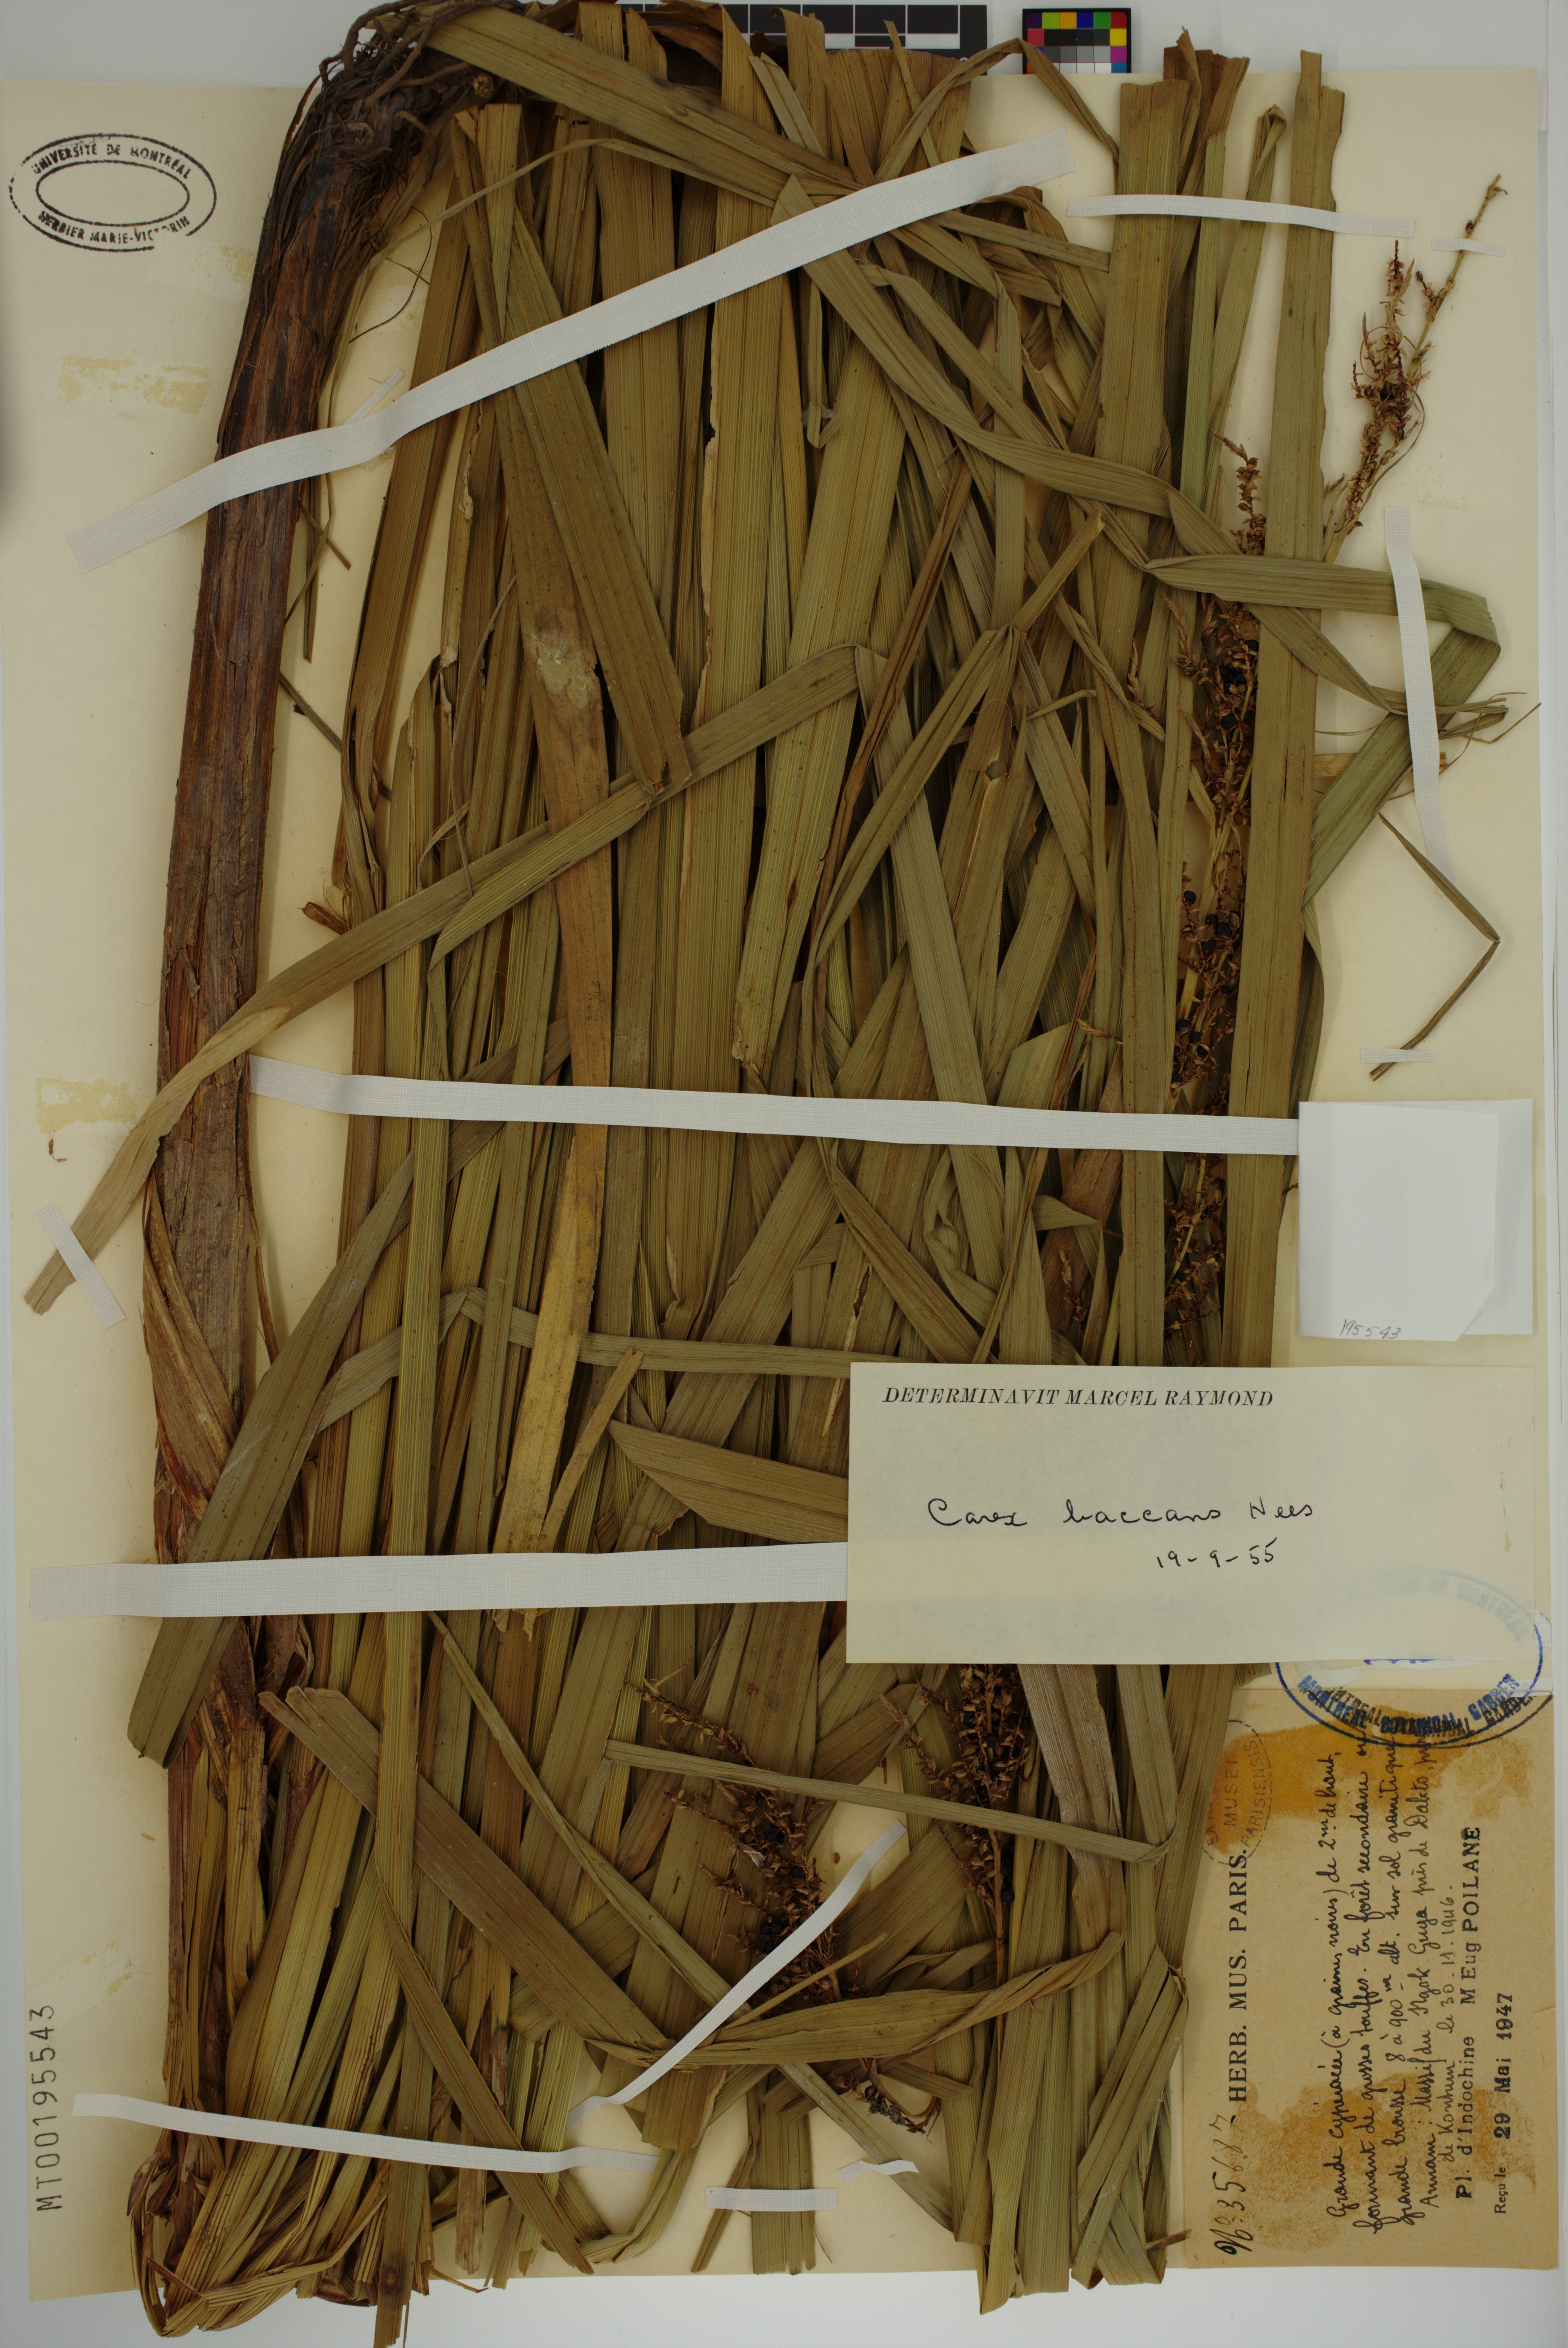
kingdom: Plantae
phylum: Tracheophyta
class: Liliopsida
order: Poales
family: Cyperaceae
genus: Carex
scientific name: Carex baccans
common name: Crimson seeded sedge
